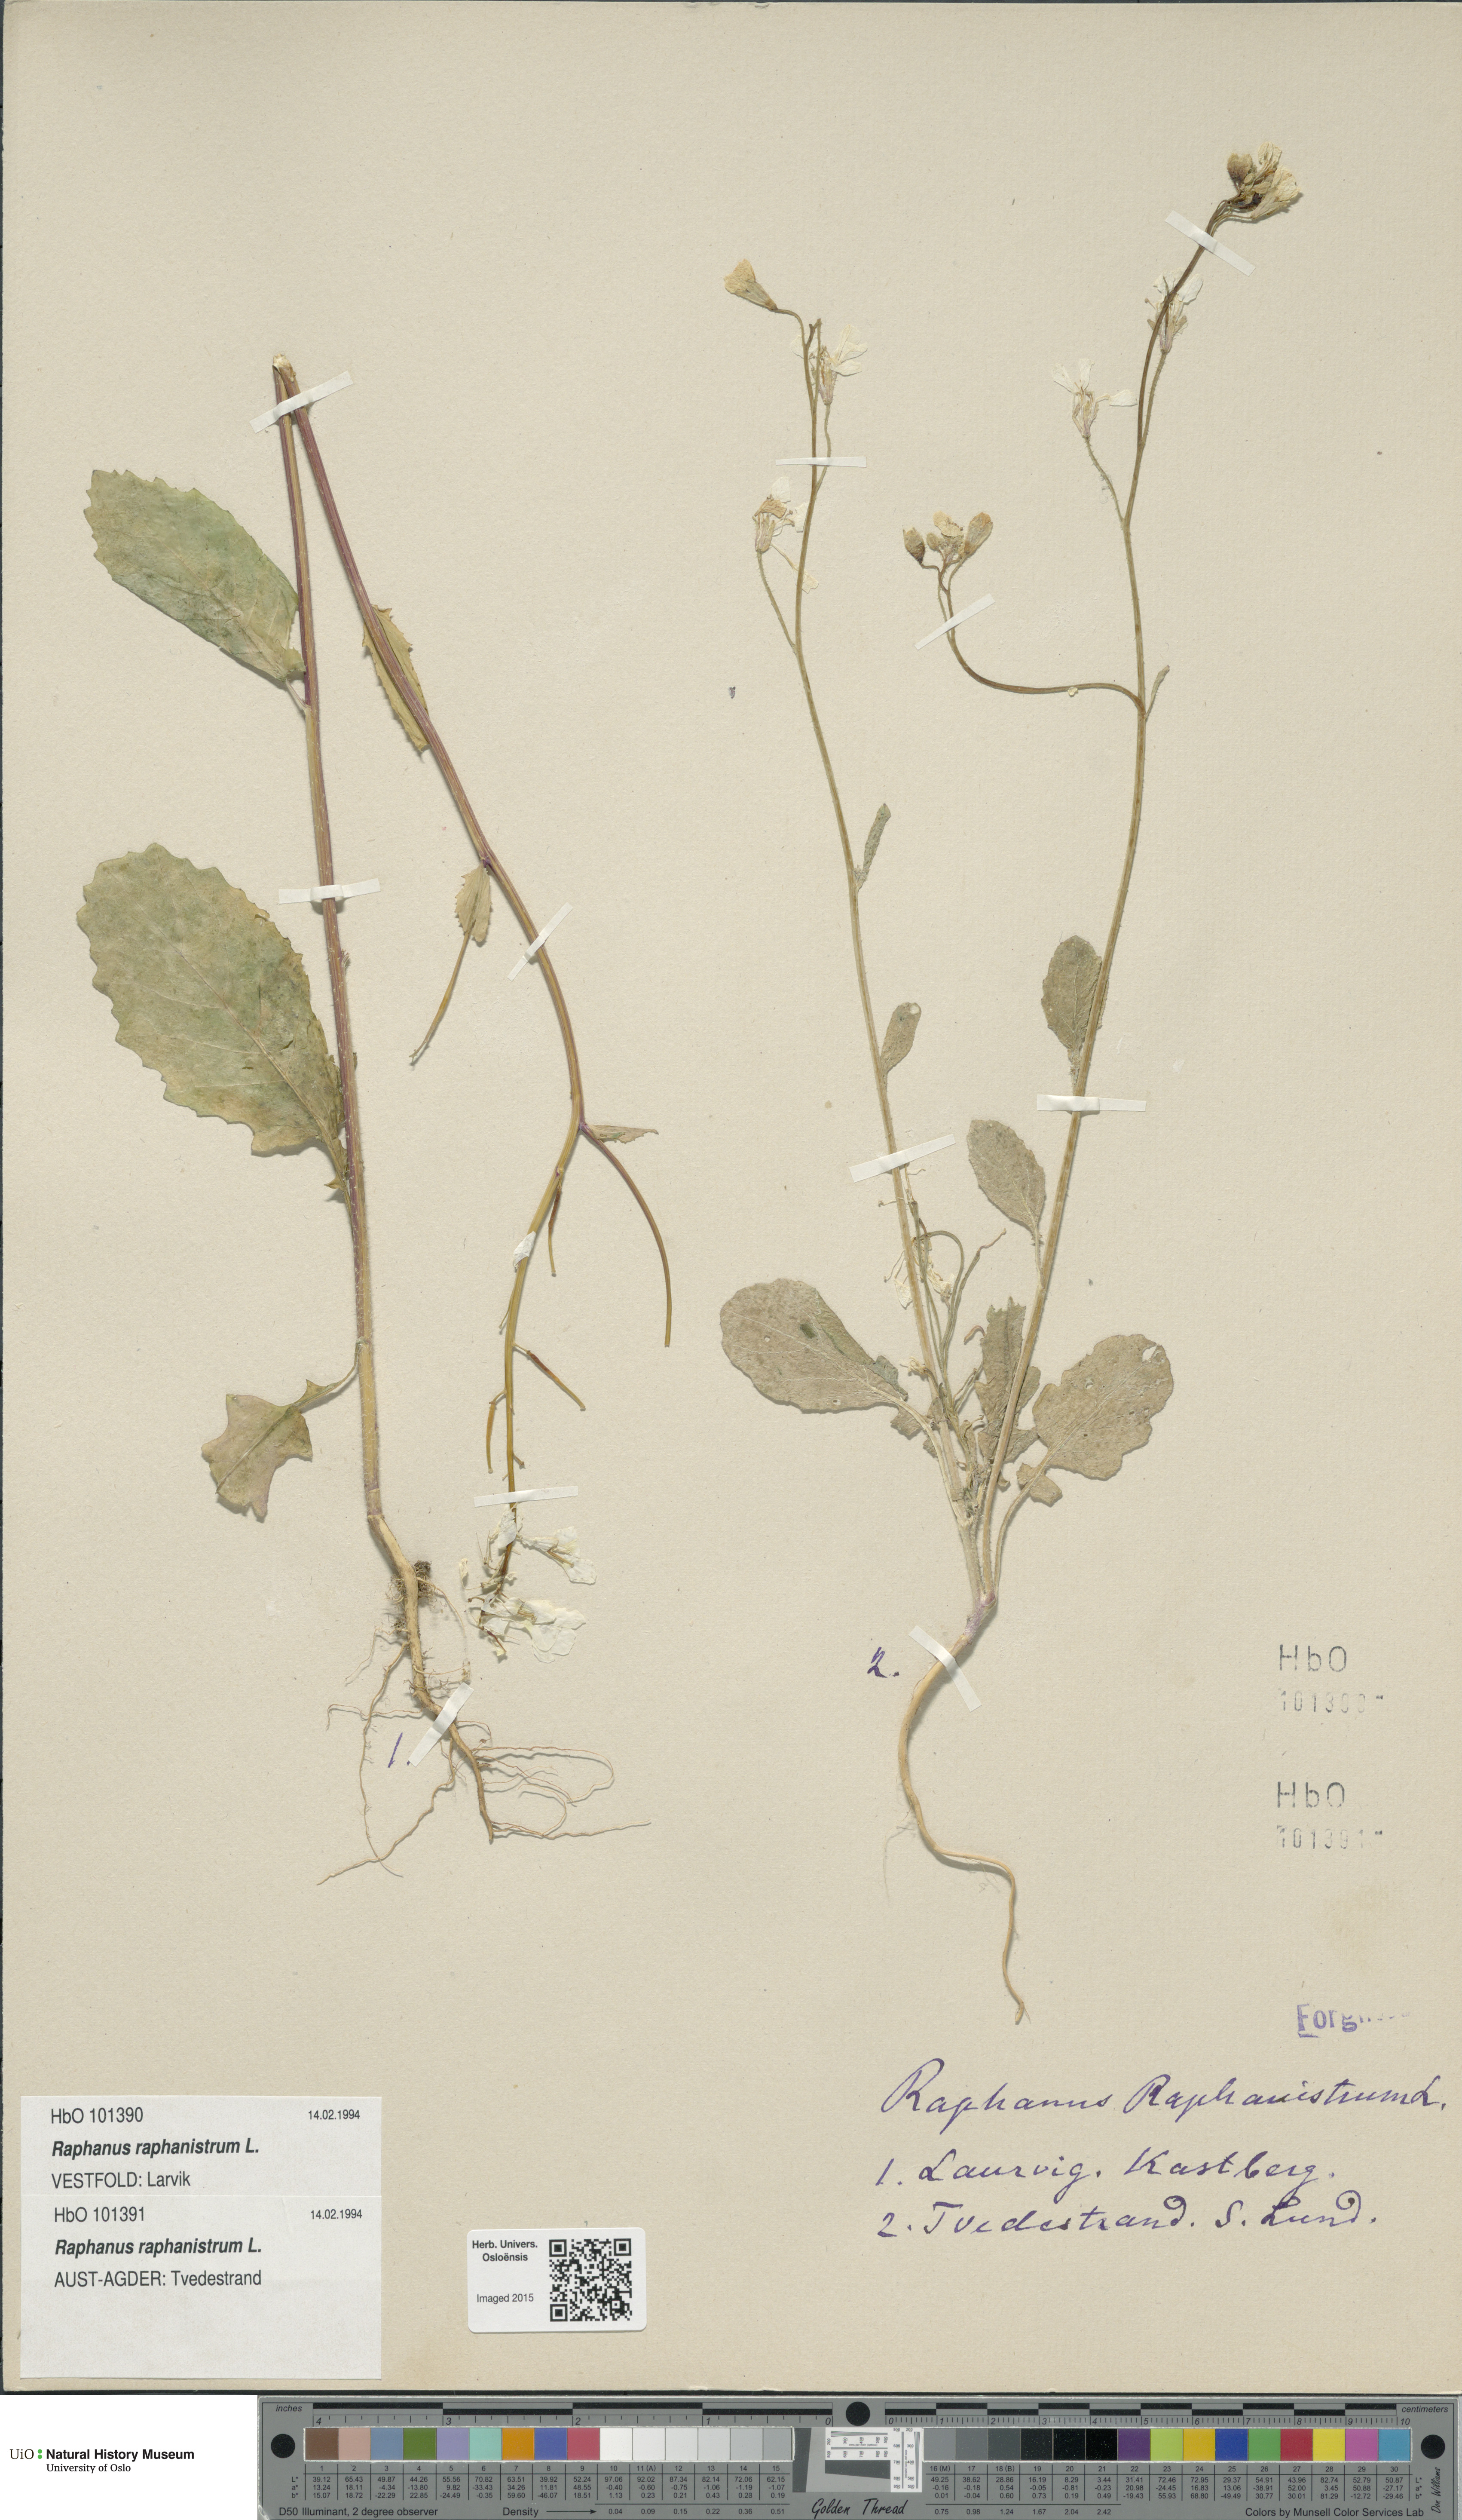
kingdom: Plantae
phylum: Tracheophyta
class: Magnoliopsida
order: Brassicales
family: Brassicaceae
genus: Raphanus
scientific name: Raphanus raphanistrum
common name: Wild radish
